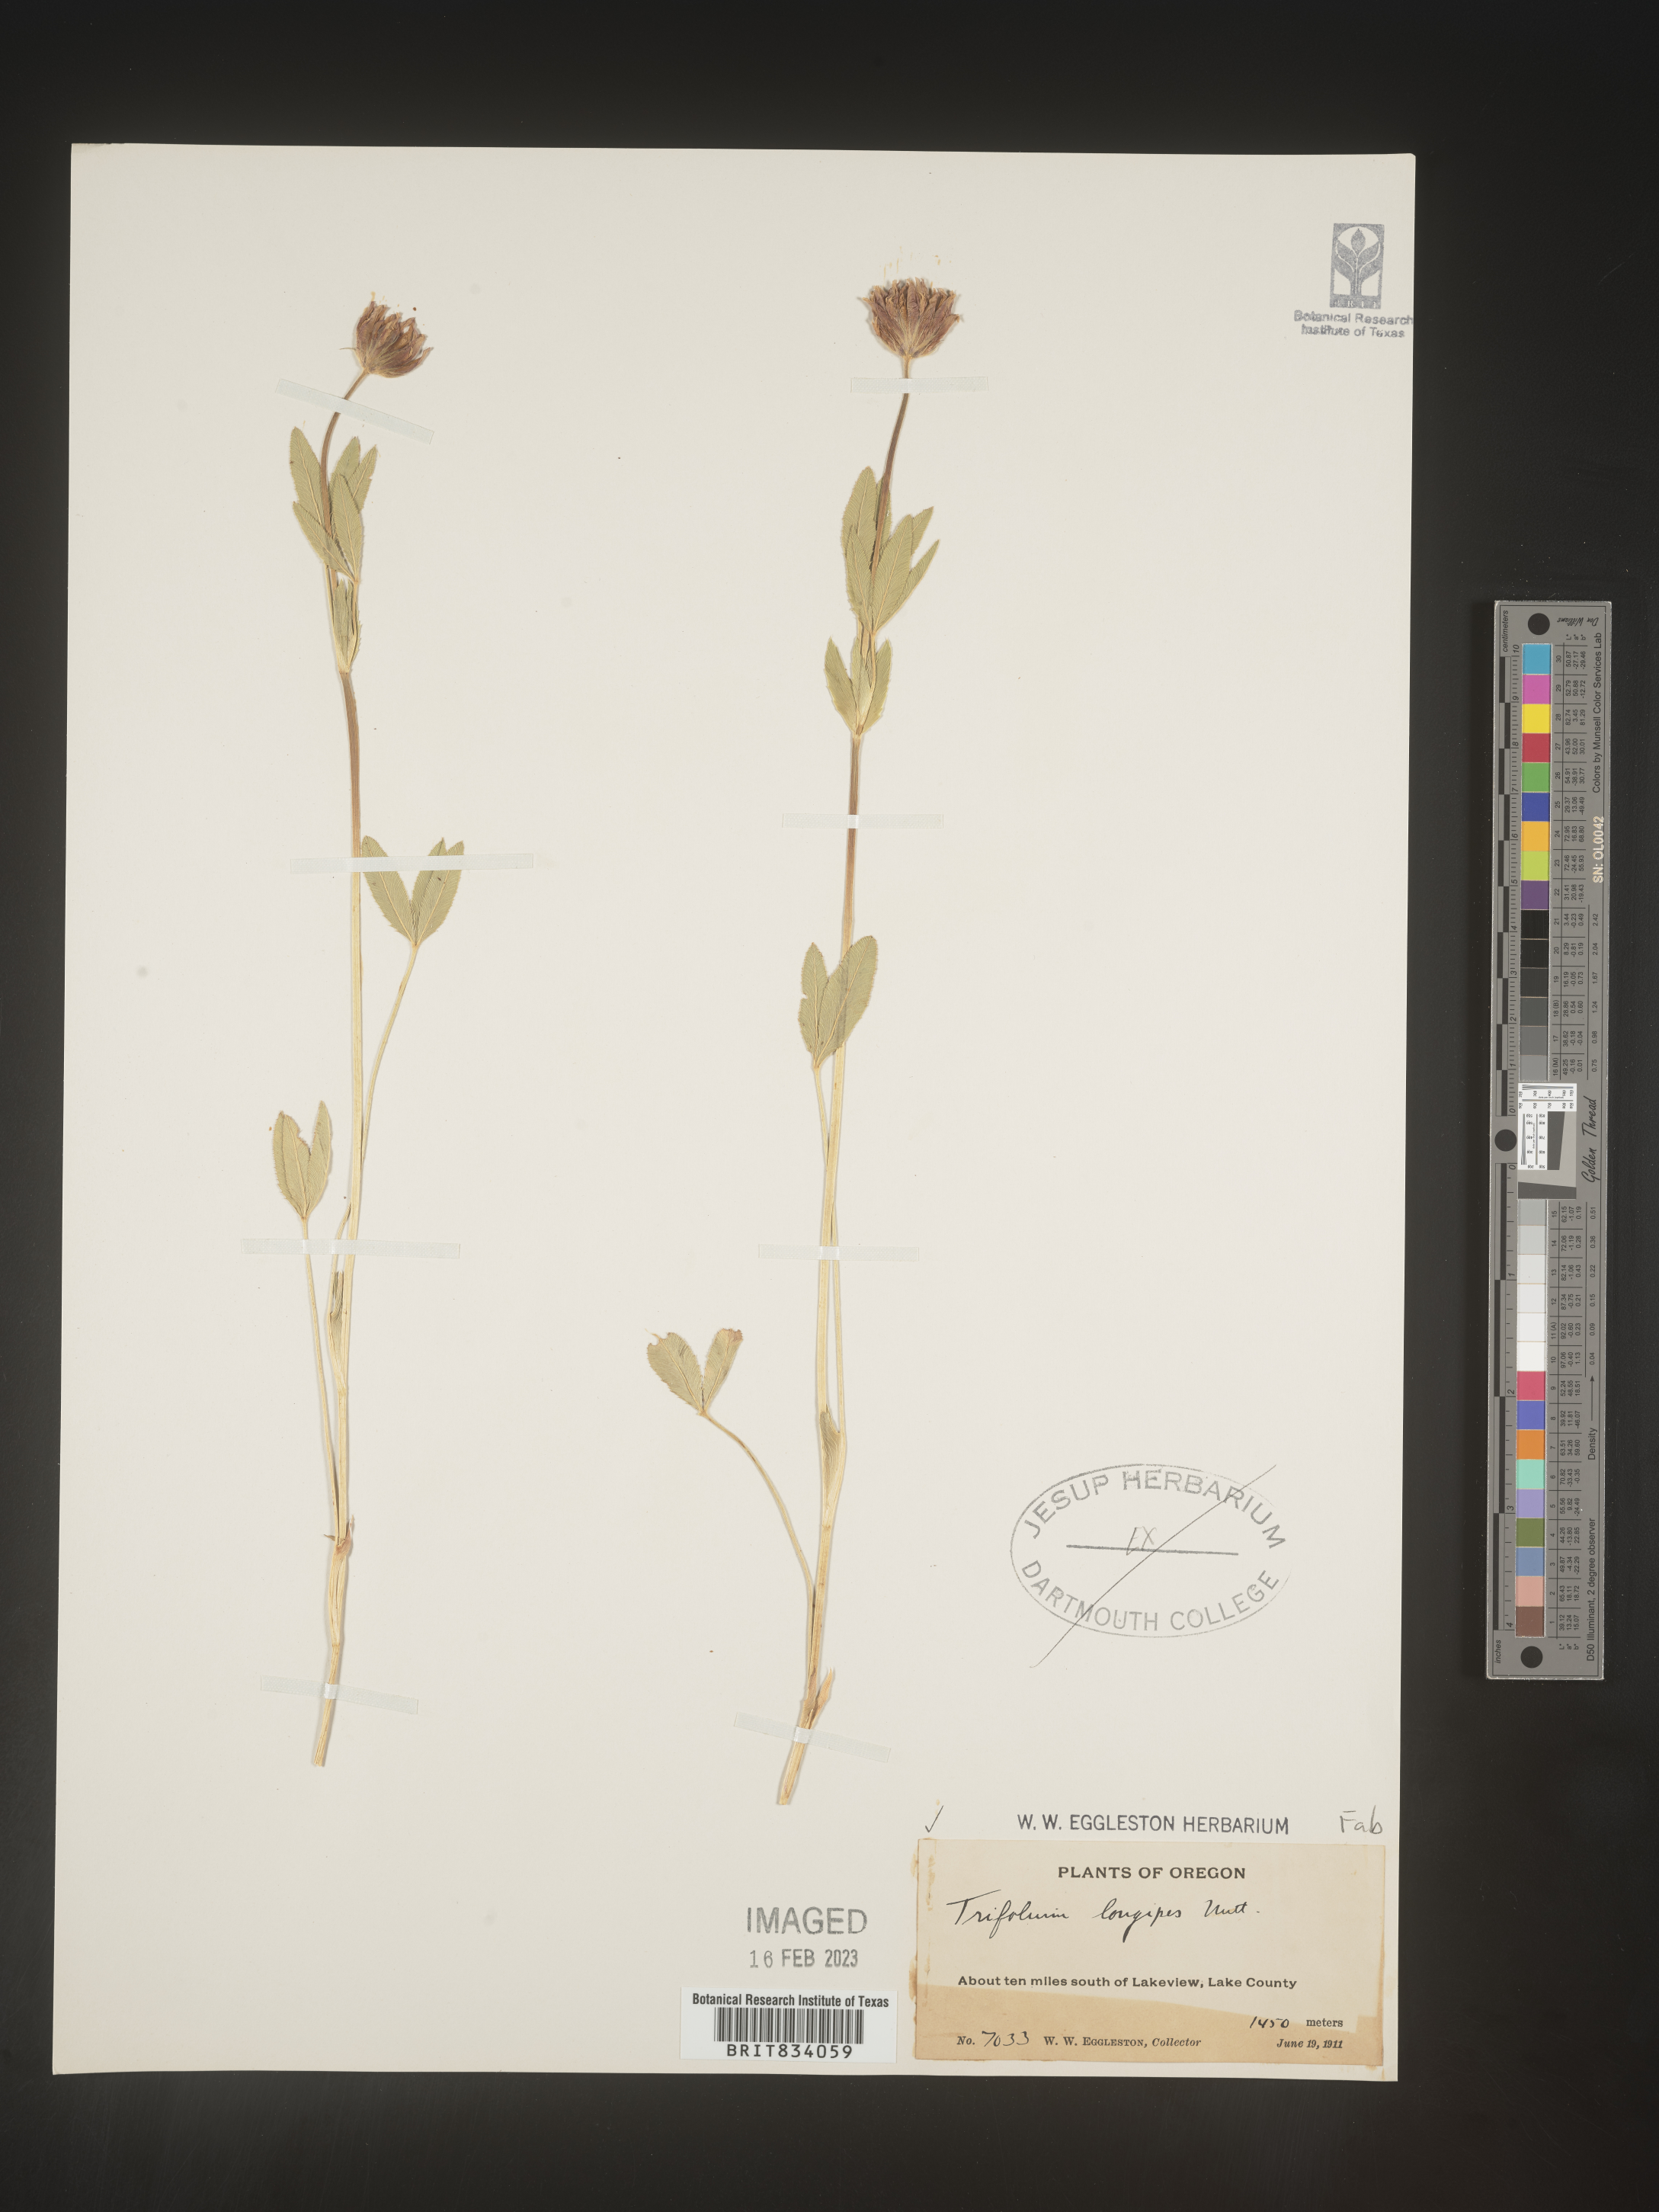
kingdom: Plantae
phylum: Tracheophyta
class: Magnoliopsida
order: Fabales
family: Fabaceae
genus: Trifolium
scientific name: Trifolium
